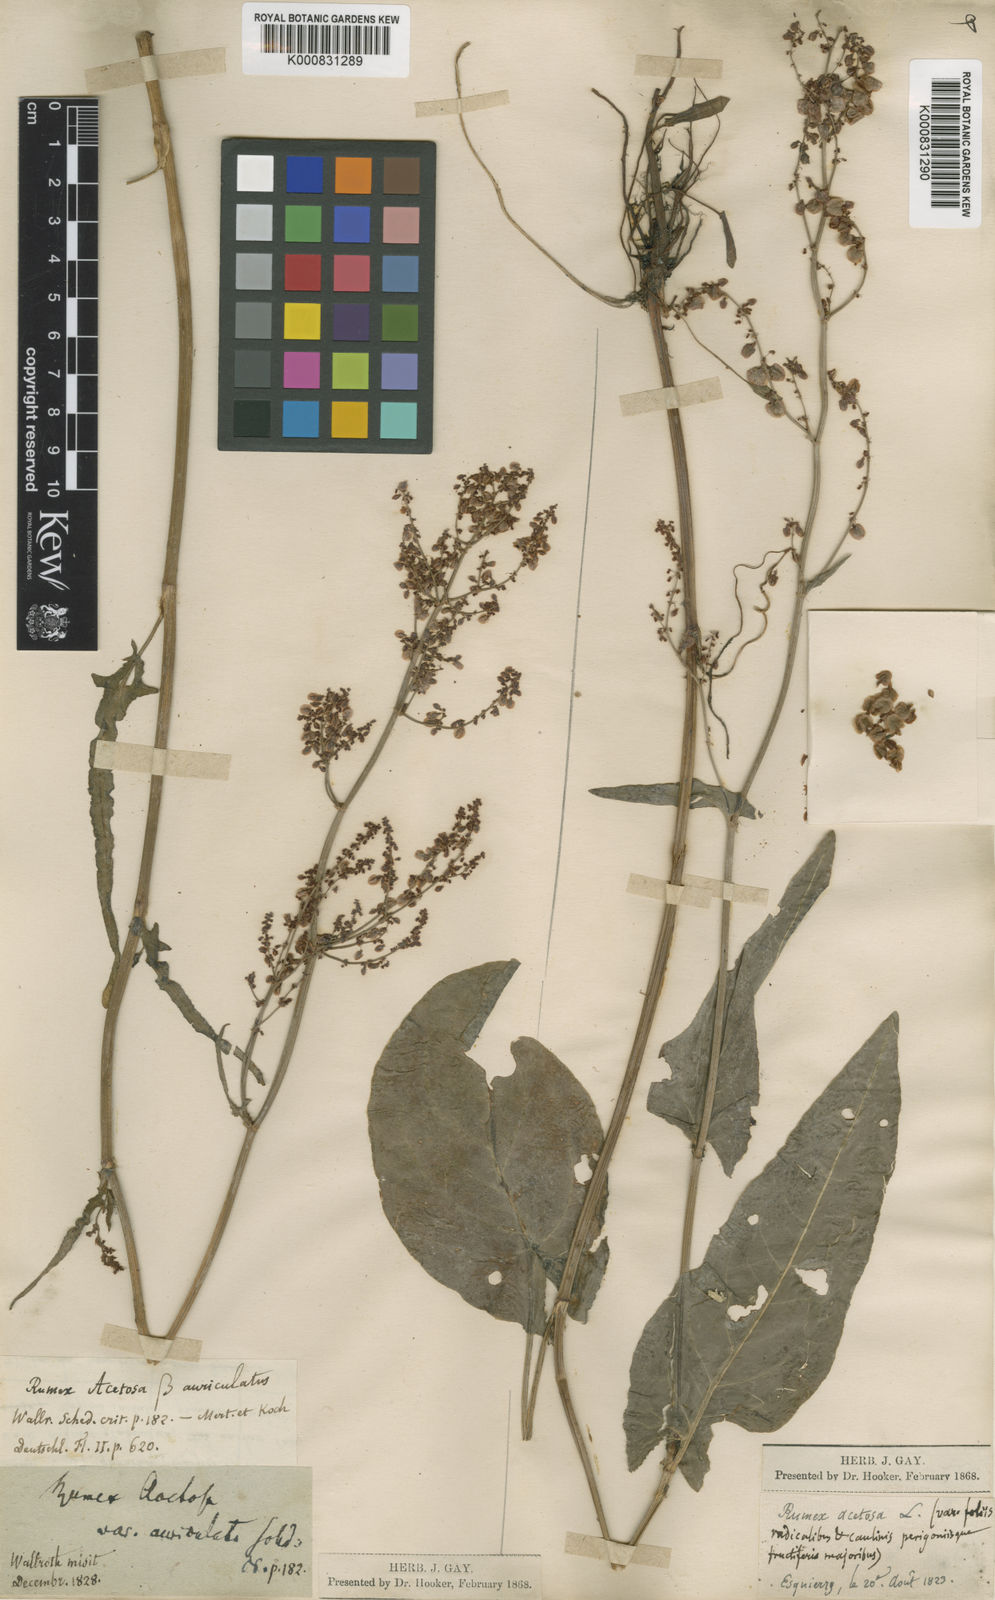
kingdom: Plantae
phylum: Tracheophyta
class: Magnoliopsida
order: Caryophyllales
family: Polygonaceae
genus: Rumex
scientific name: Rumex thyrsiflorus
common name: Garden sorrel
